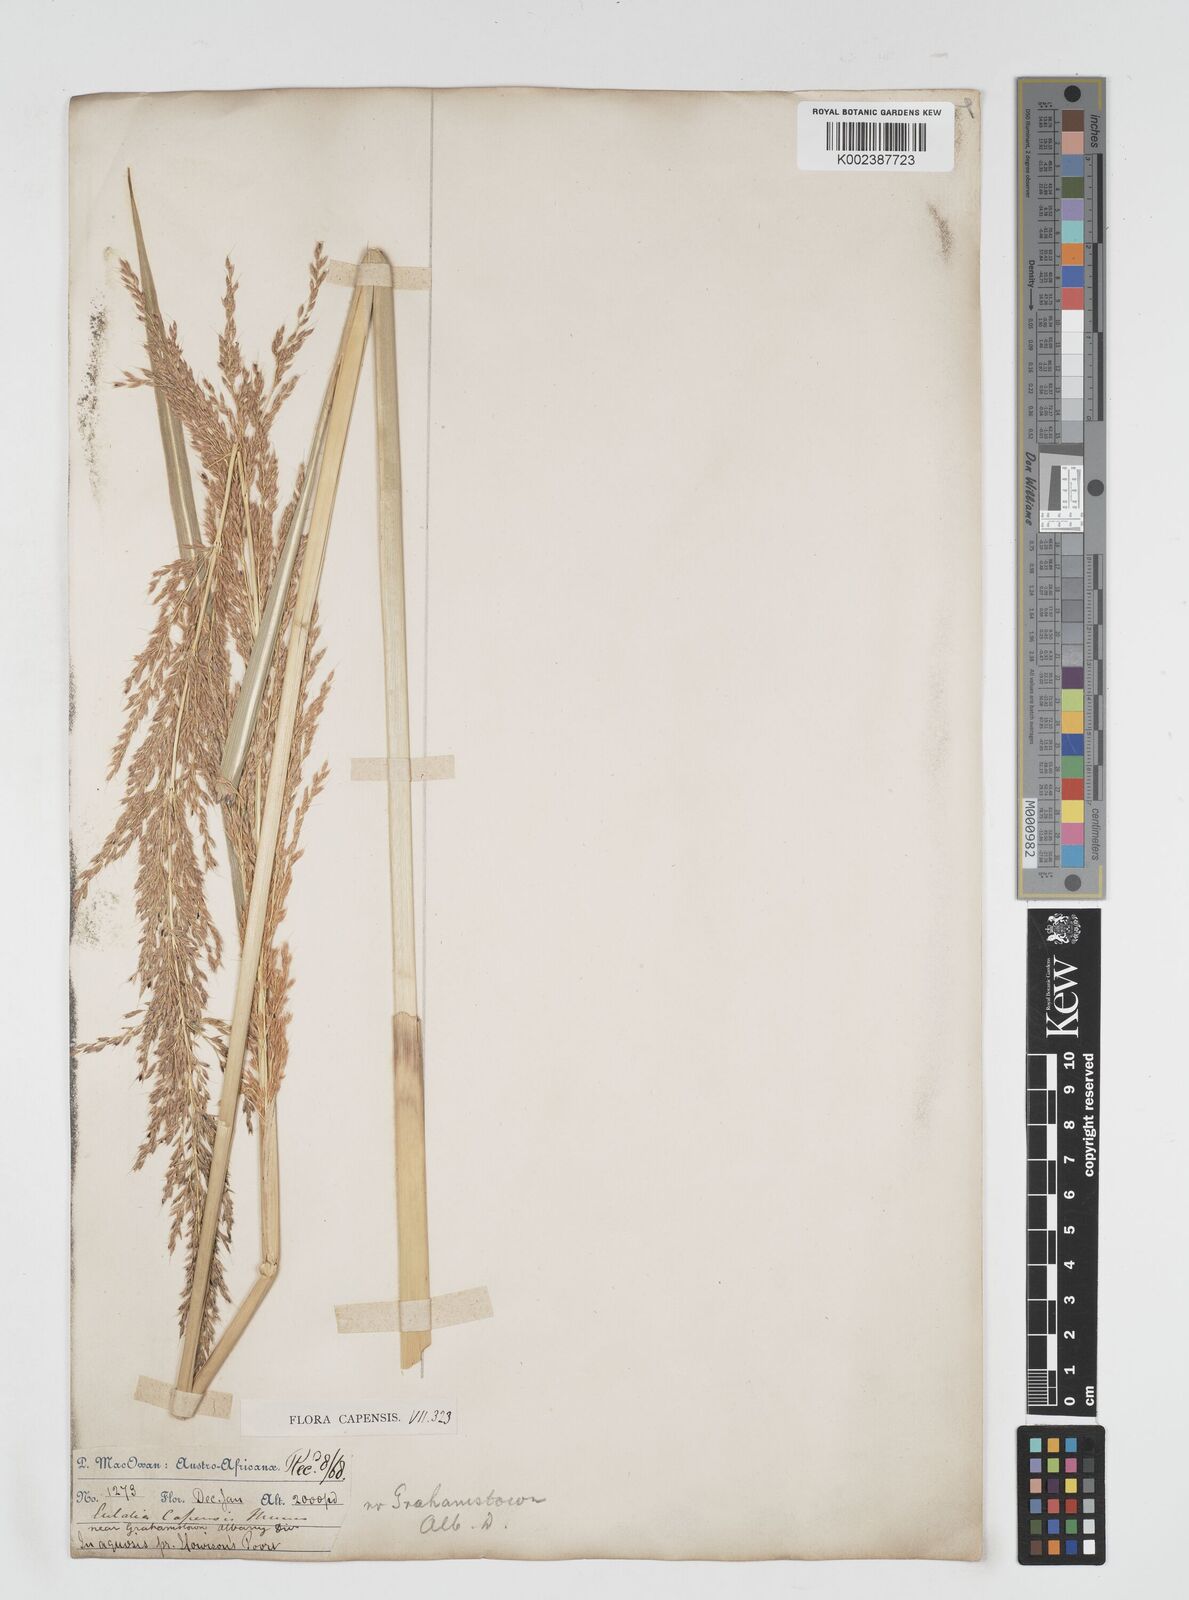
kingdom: Plantae
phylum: Tracheophyta
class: Liliopsida
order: Poales
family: Poaceae
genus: Miscanthus
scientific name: Miscanthus ecklonii
